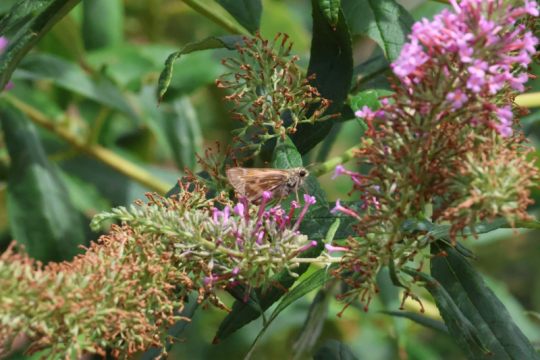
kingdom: Animalia
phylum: Arthropoda
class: Insecta
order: Lepidoptera
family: Hesperiidae
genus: Atalopedes
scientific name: Atalopedes campestris
